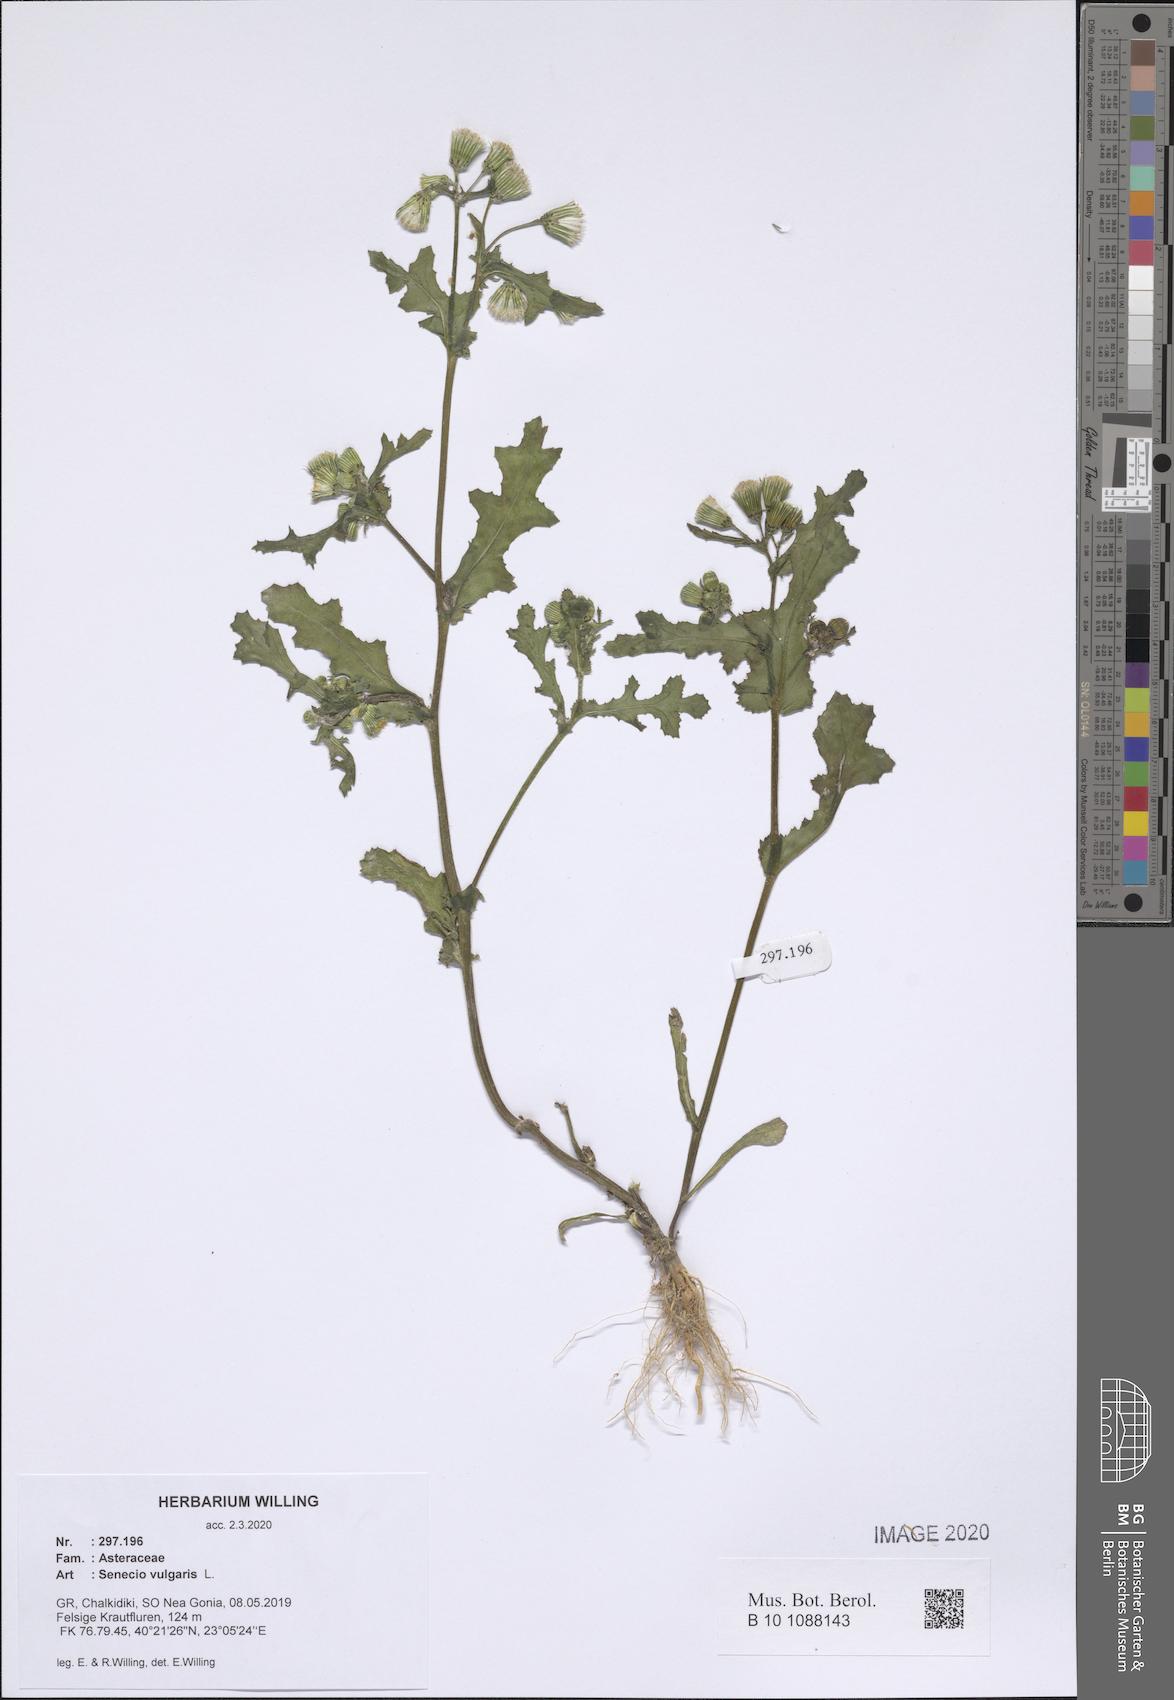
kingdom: Plantae
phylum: Tracheophyta
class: Magnoliopsida
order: Asterales
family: Asteraceae
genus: Senecio
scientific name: Senecio vulgaris
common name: Old-man-in-the-spring
